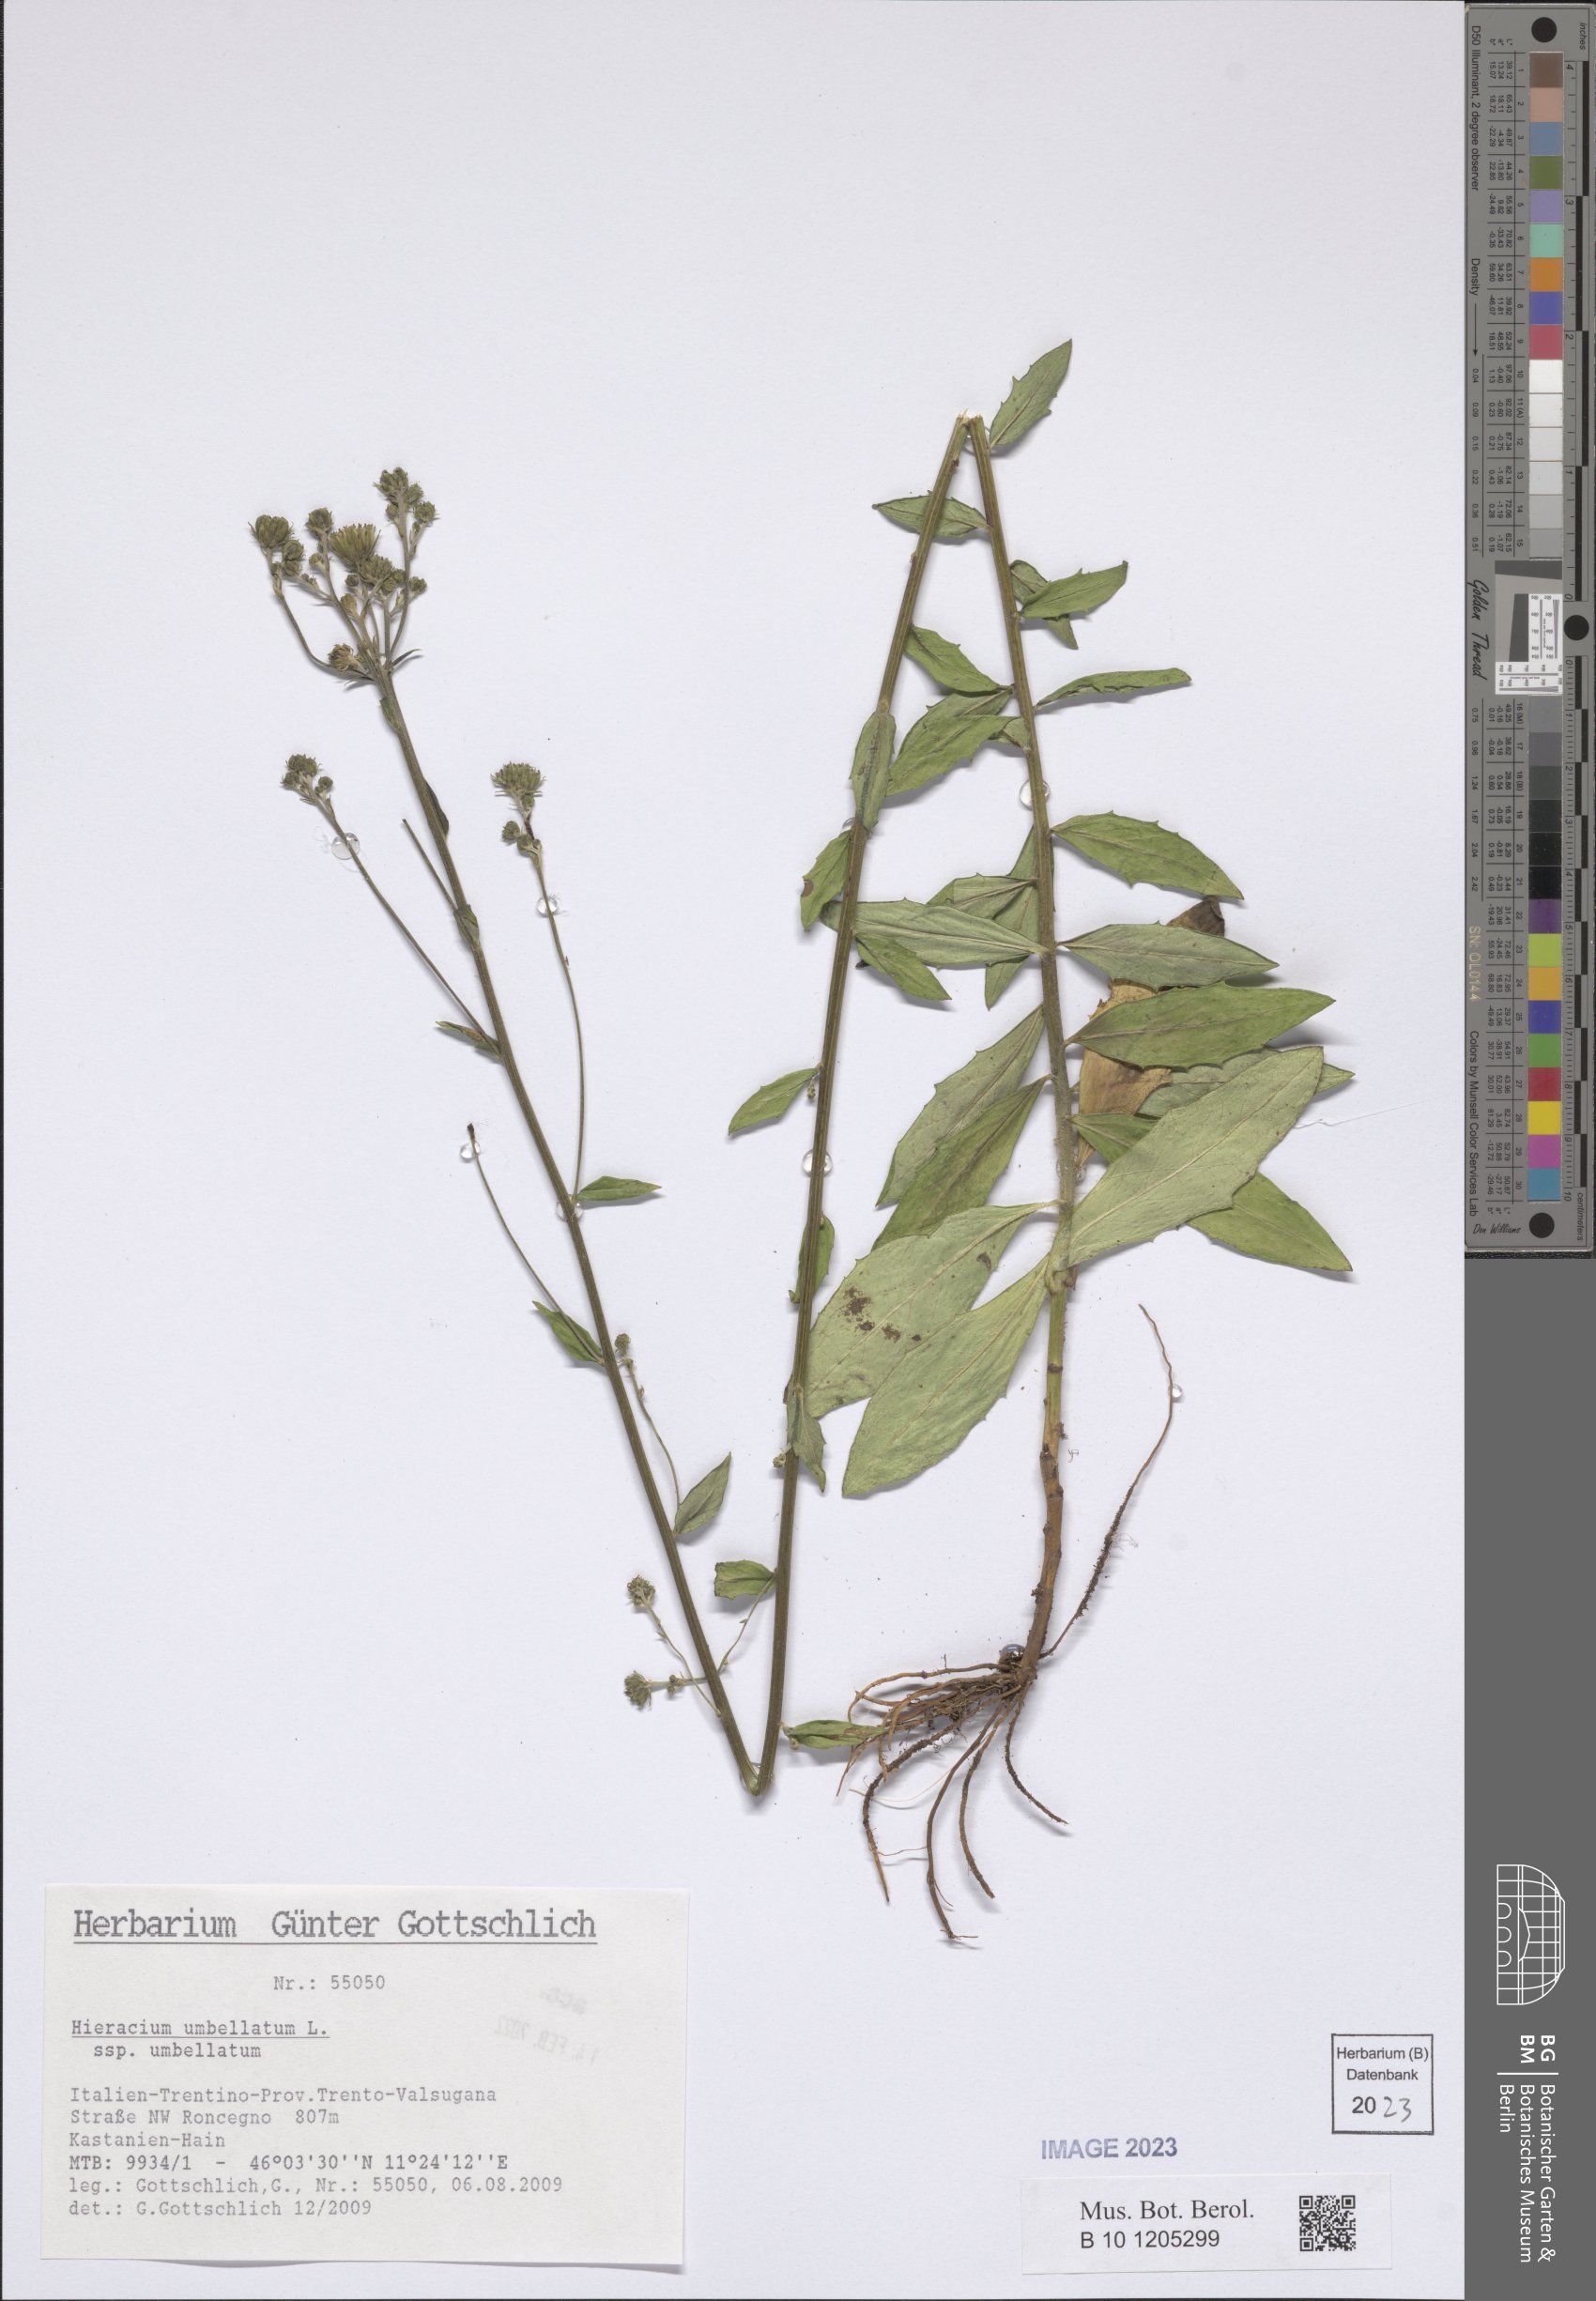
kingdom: Plantae
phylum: Tracheophyta
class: Magnoliopsida
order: Asterales
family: Asteraceae
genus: Hieracium
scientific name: Hieracium umbellatum
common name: Northern hawkweed
